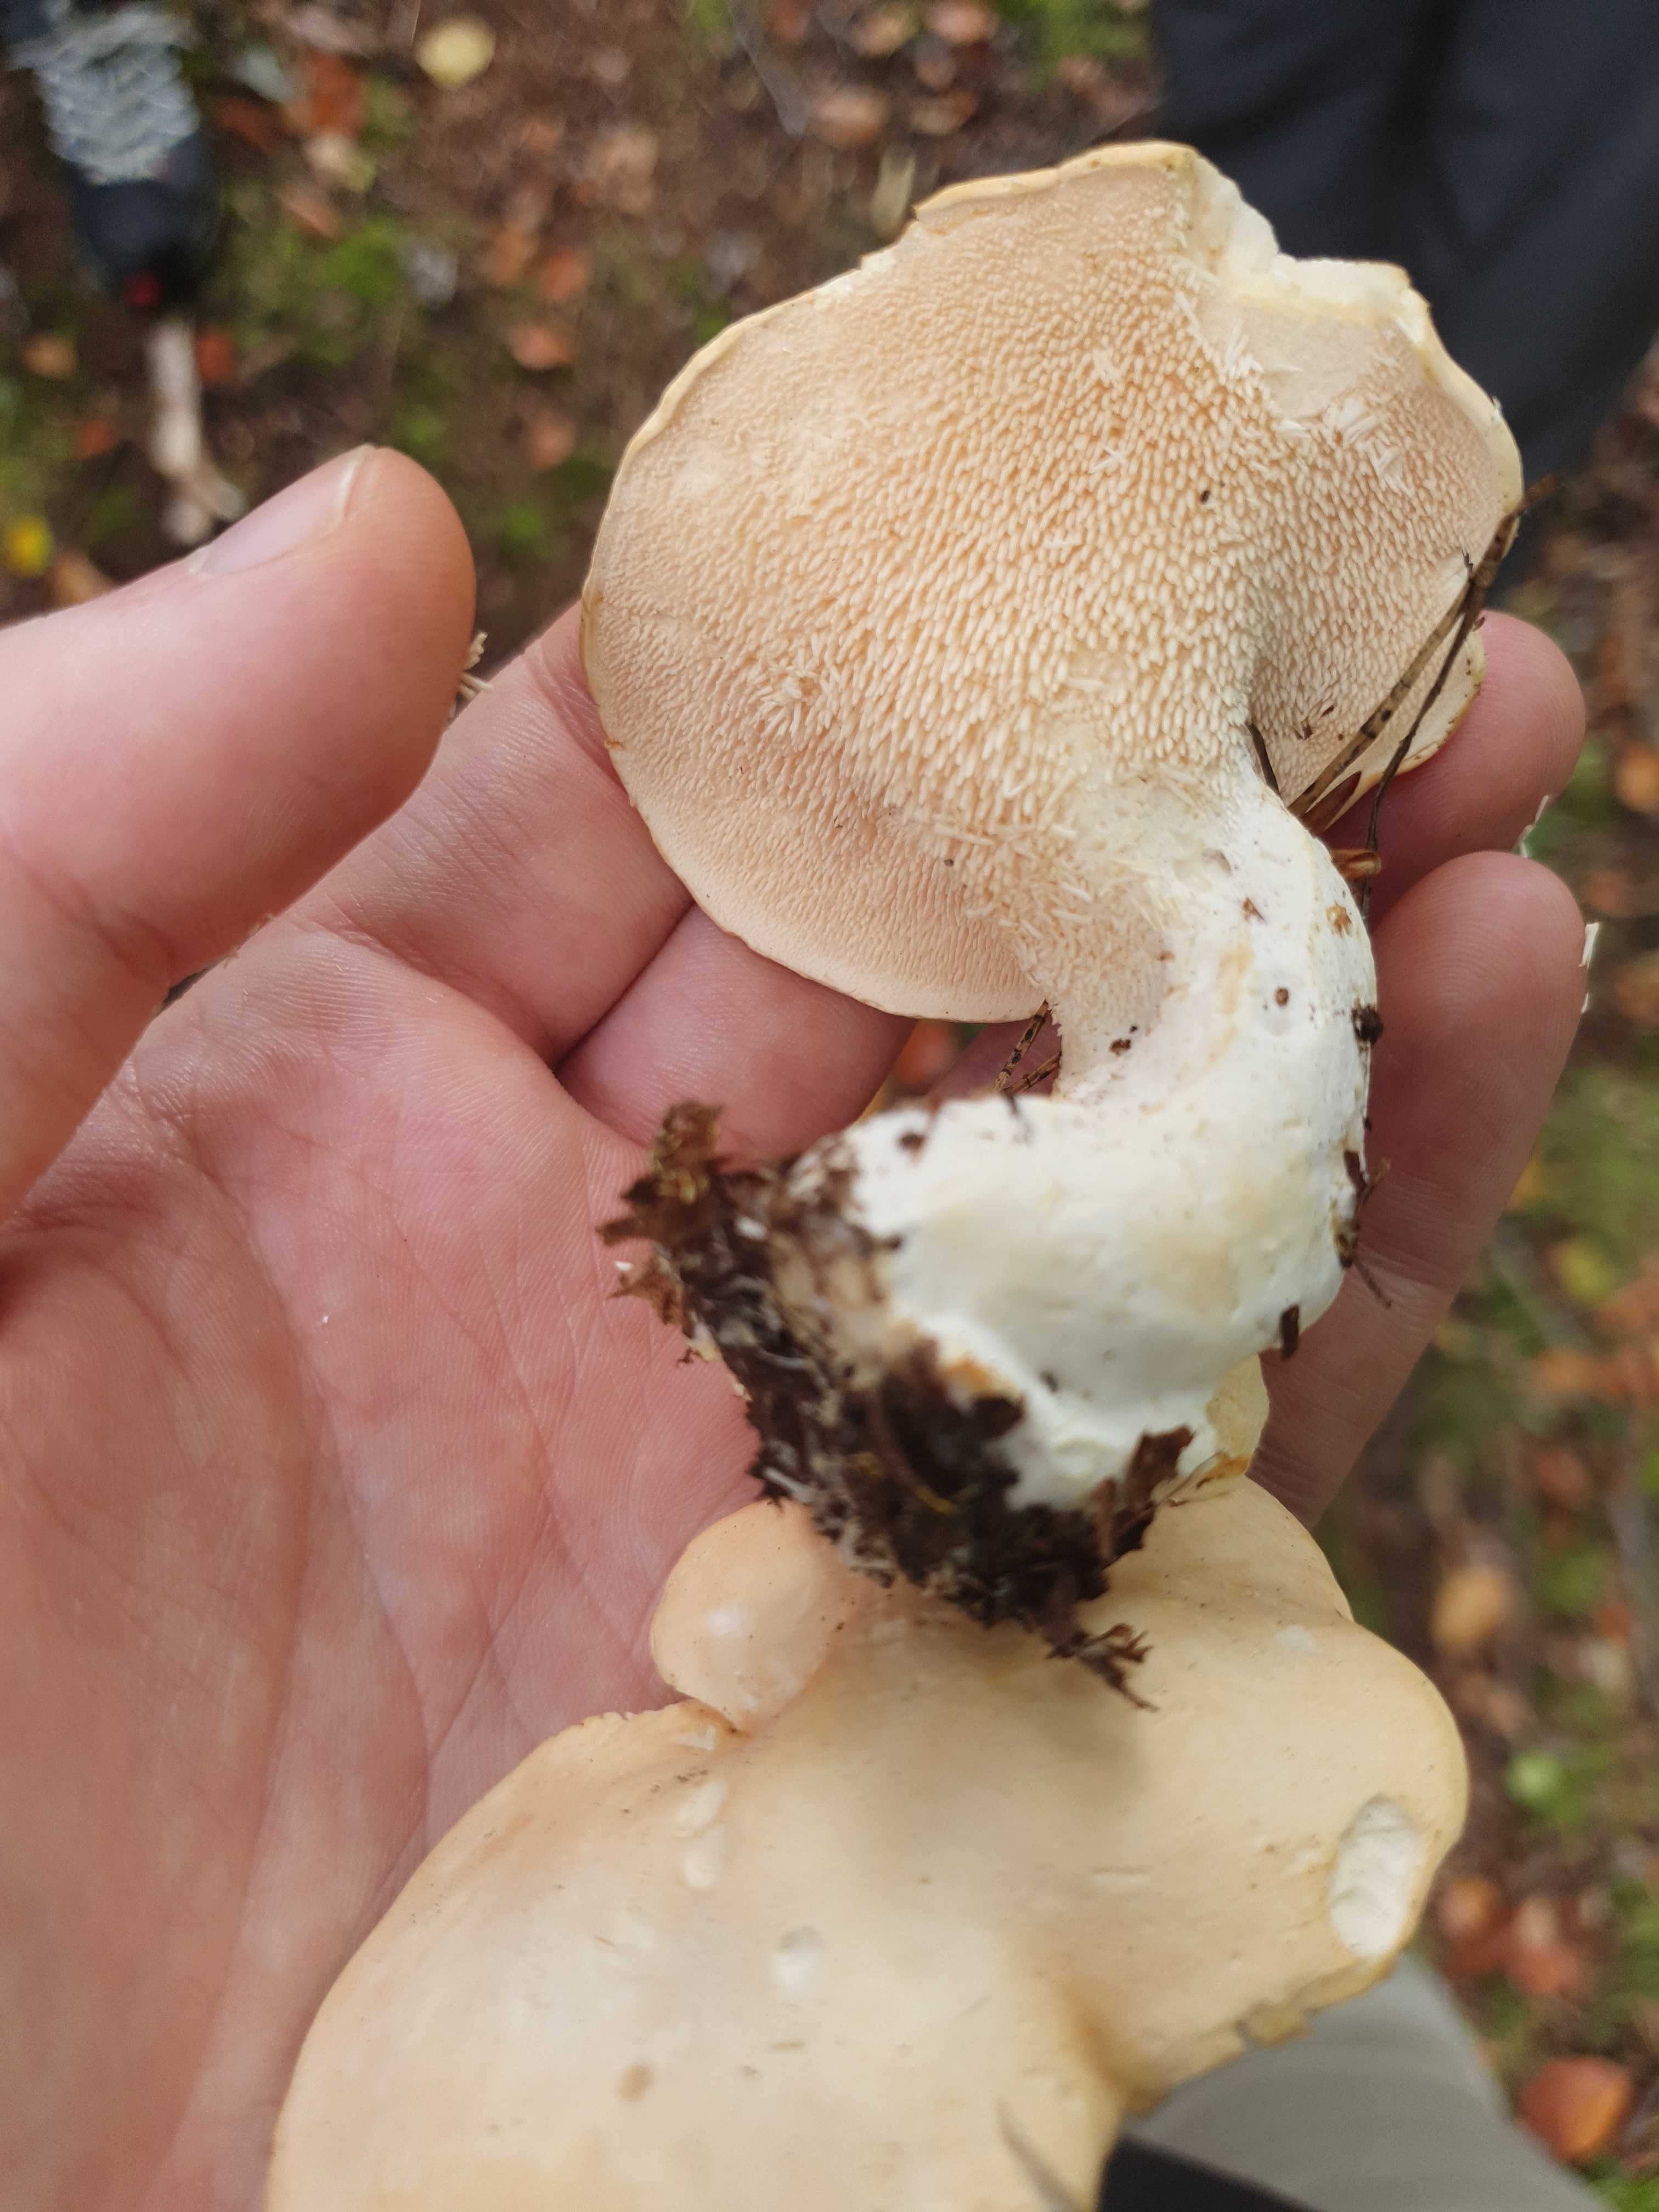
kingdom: Fungi
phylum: Basidiomycota
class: Agaricomycetes
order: Cantharellales
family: Hydnaceae
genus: Hydnum
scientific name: Hydnum
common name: pigsvamp
